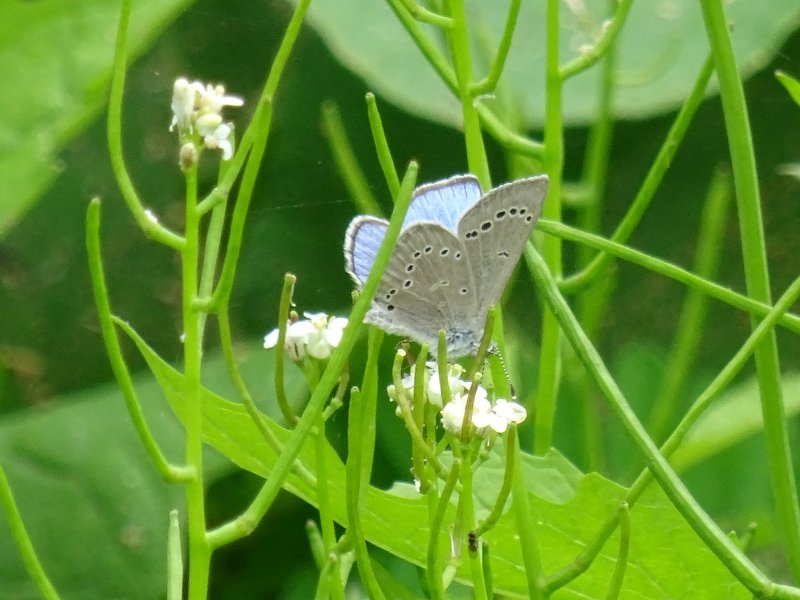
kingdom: Animalia
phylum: Arthropoda
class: Insecta
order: Lepidoptera
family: Lycaenidae
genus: Glaucopsyche
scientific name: Glaucopsyche lygdamus
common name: Silvery Blue
